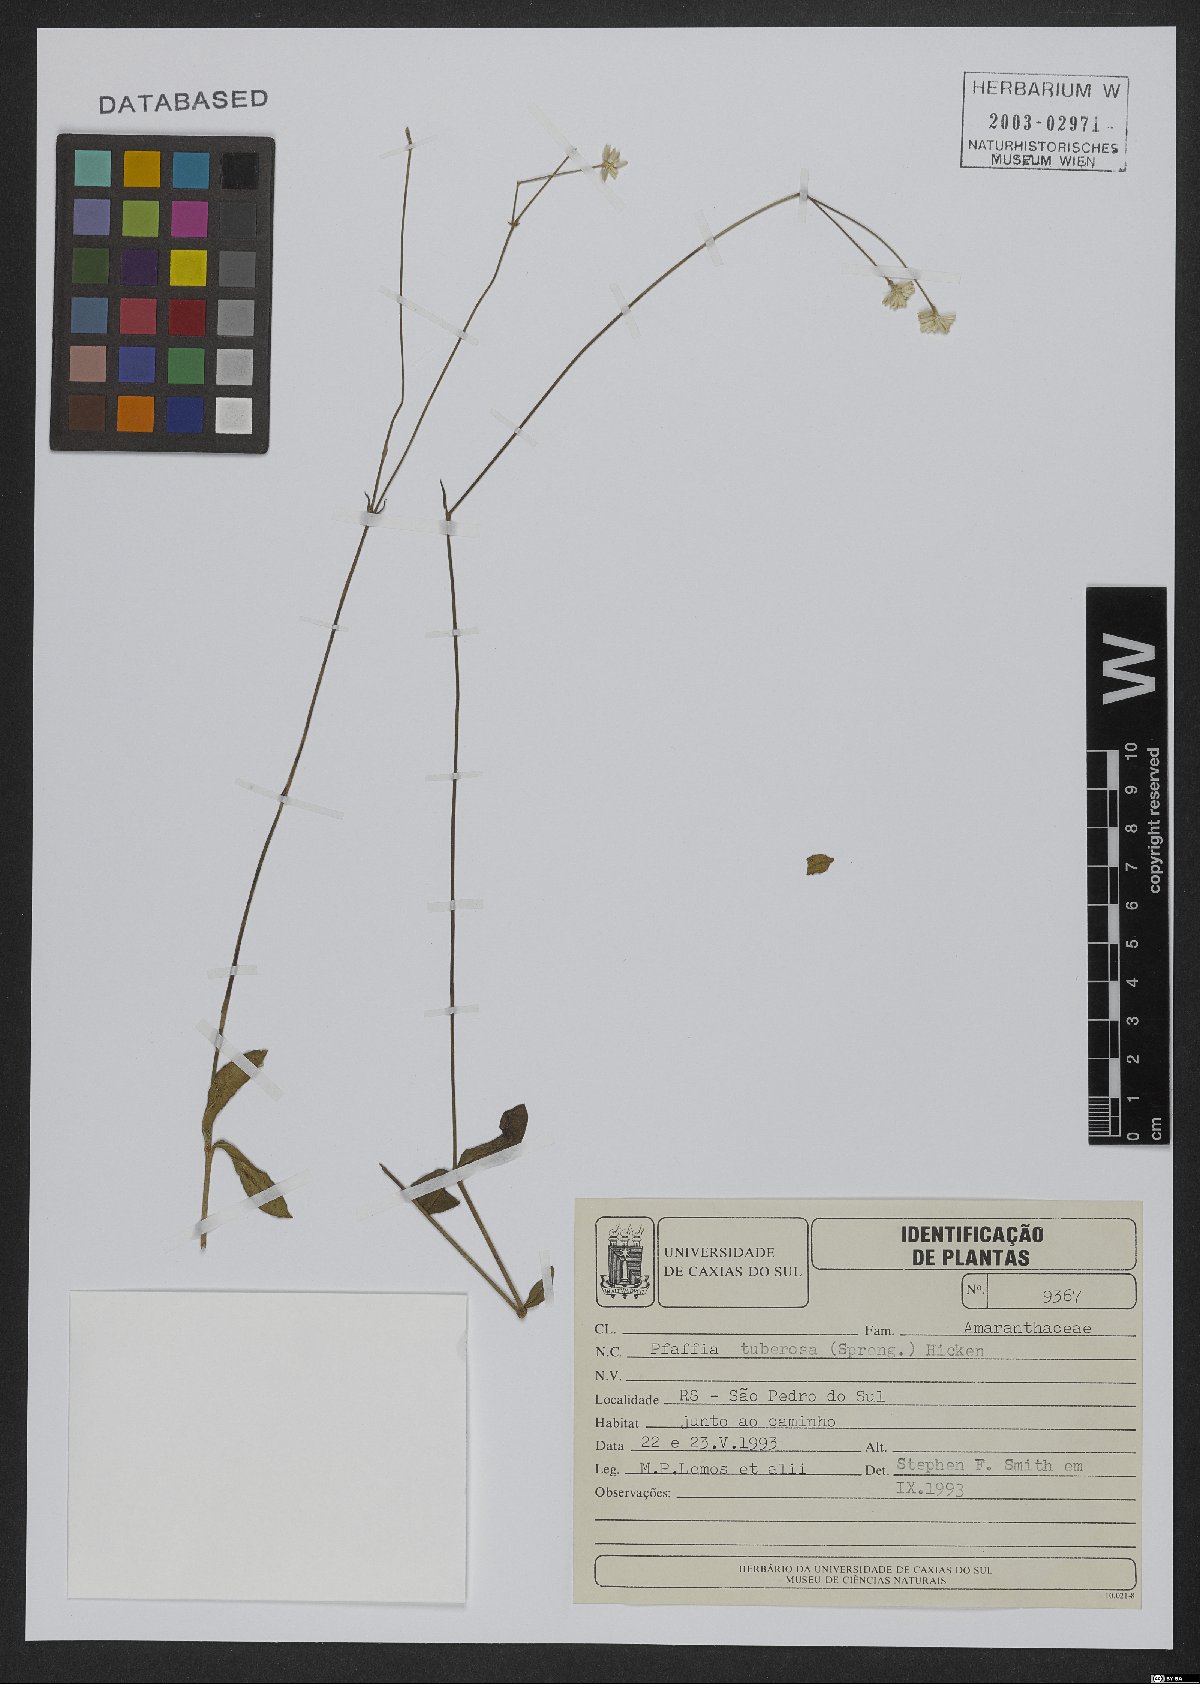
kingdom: Plantae
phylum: Tracheophyta
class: Magnoliopsida
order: Caryophyllales
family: Amaranthaceae
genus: Pfaffia
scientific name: Pfaffia tuberosa
